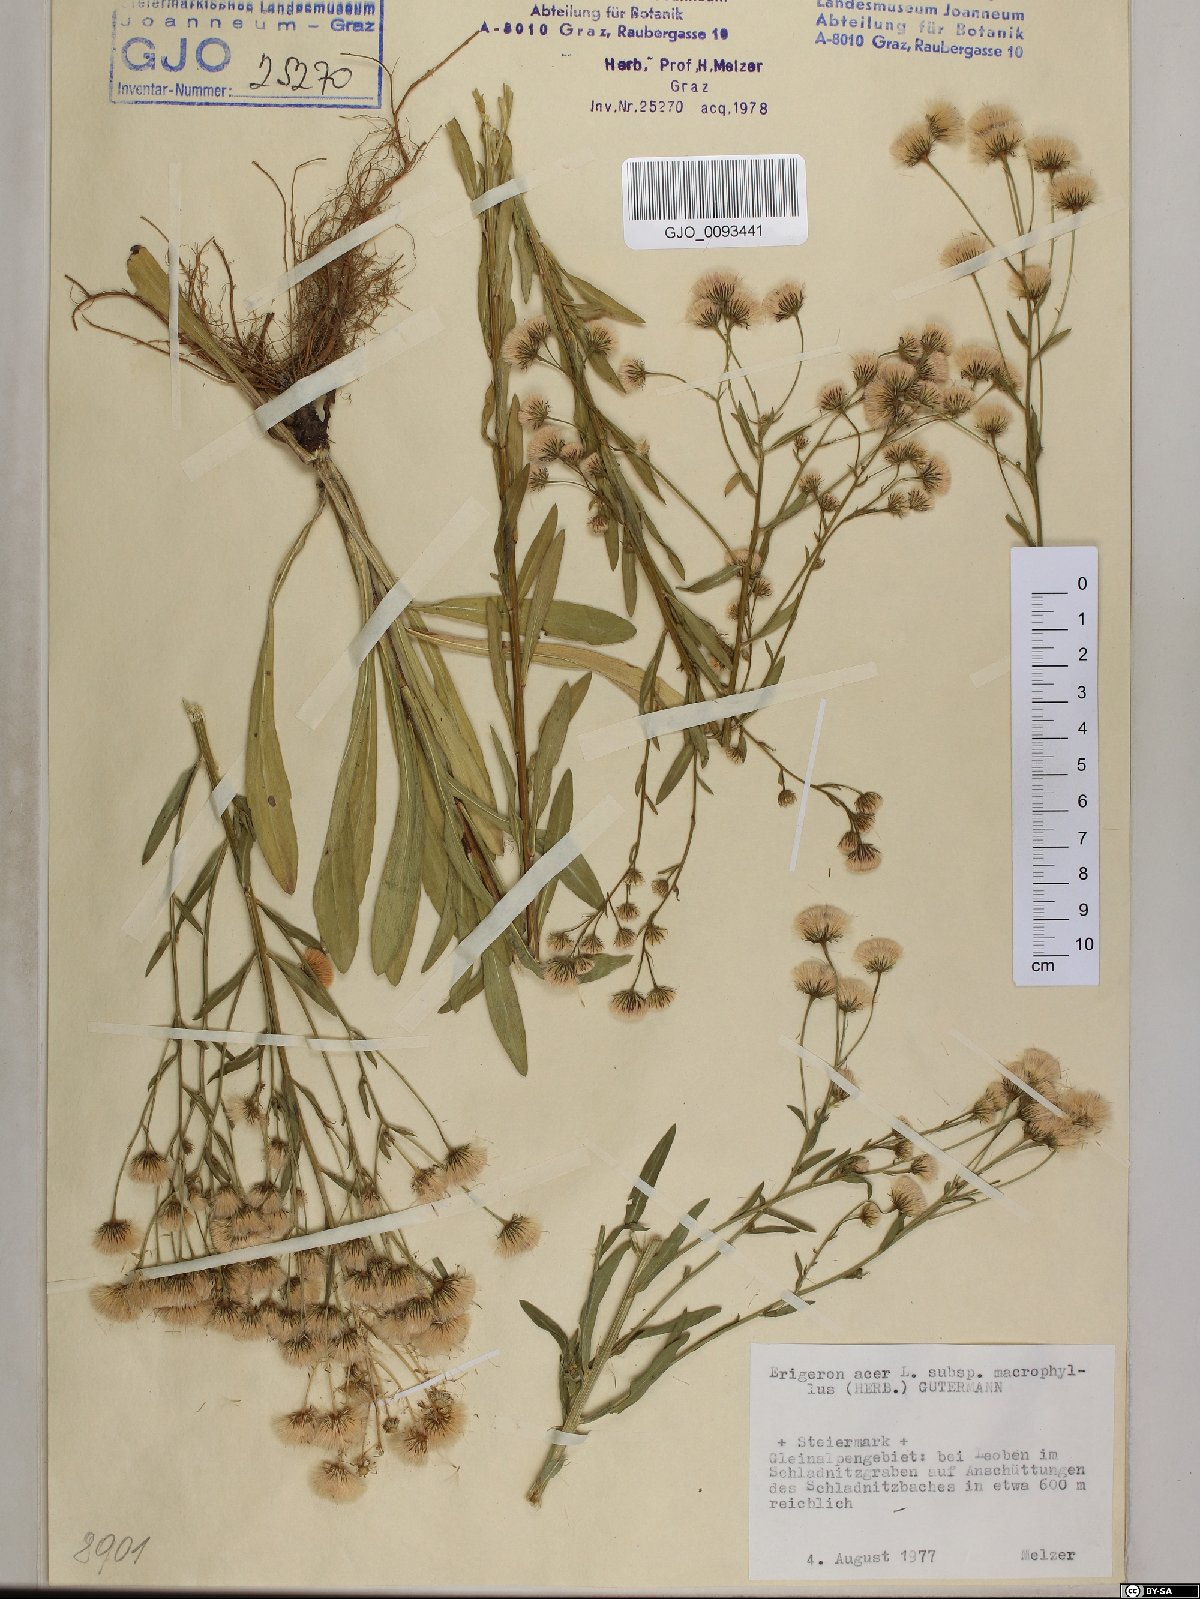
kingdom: Plantae
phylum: Tracheophyta
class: Magnoliopsida
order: Asterales
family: Asteraceae
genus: Erigeron
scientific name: Erigeron macrophyllus
